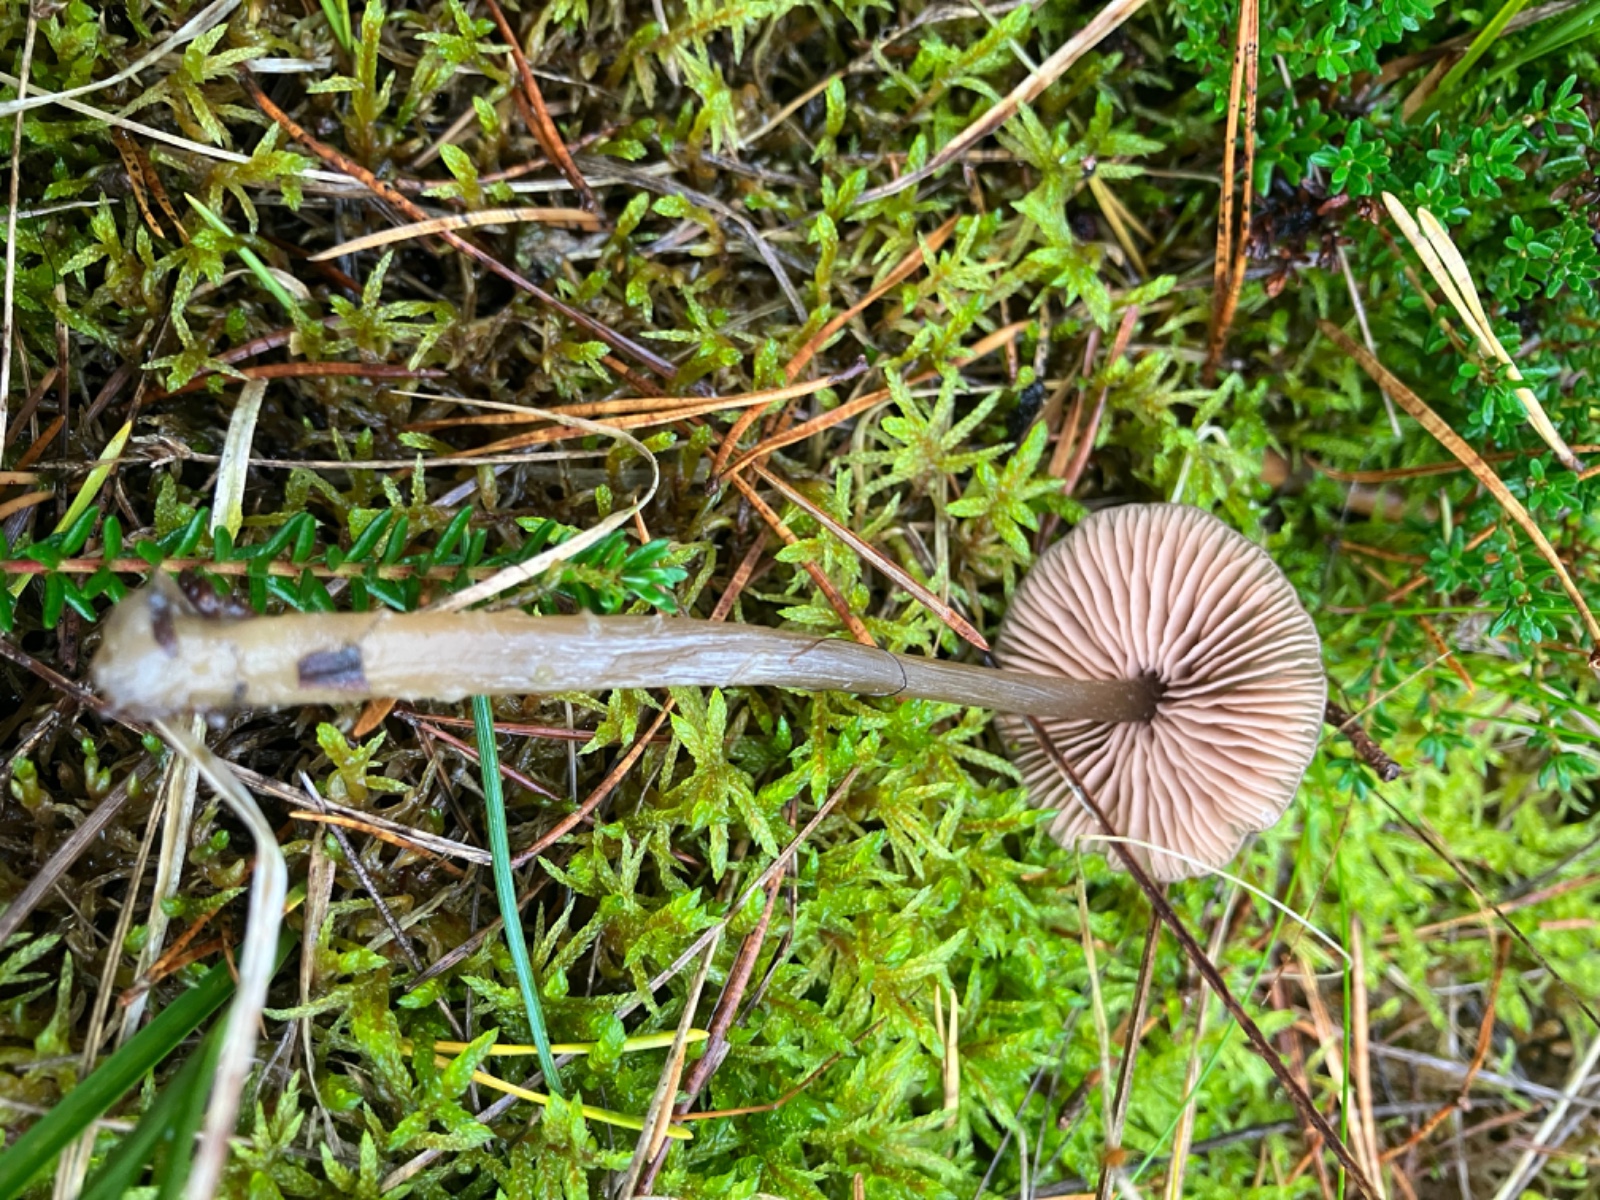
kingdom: Fungi
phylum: Basidiomycota
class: Agaricomycetes
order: Agaricales
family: Entolomataceae
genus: Entoloma
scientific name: Entoloma
